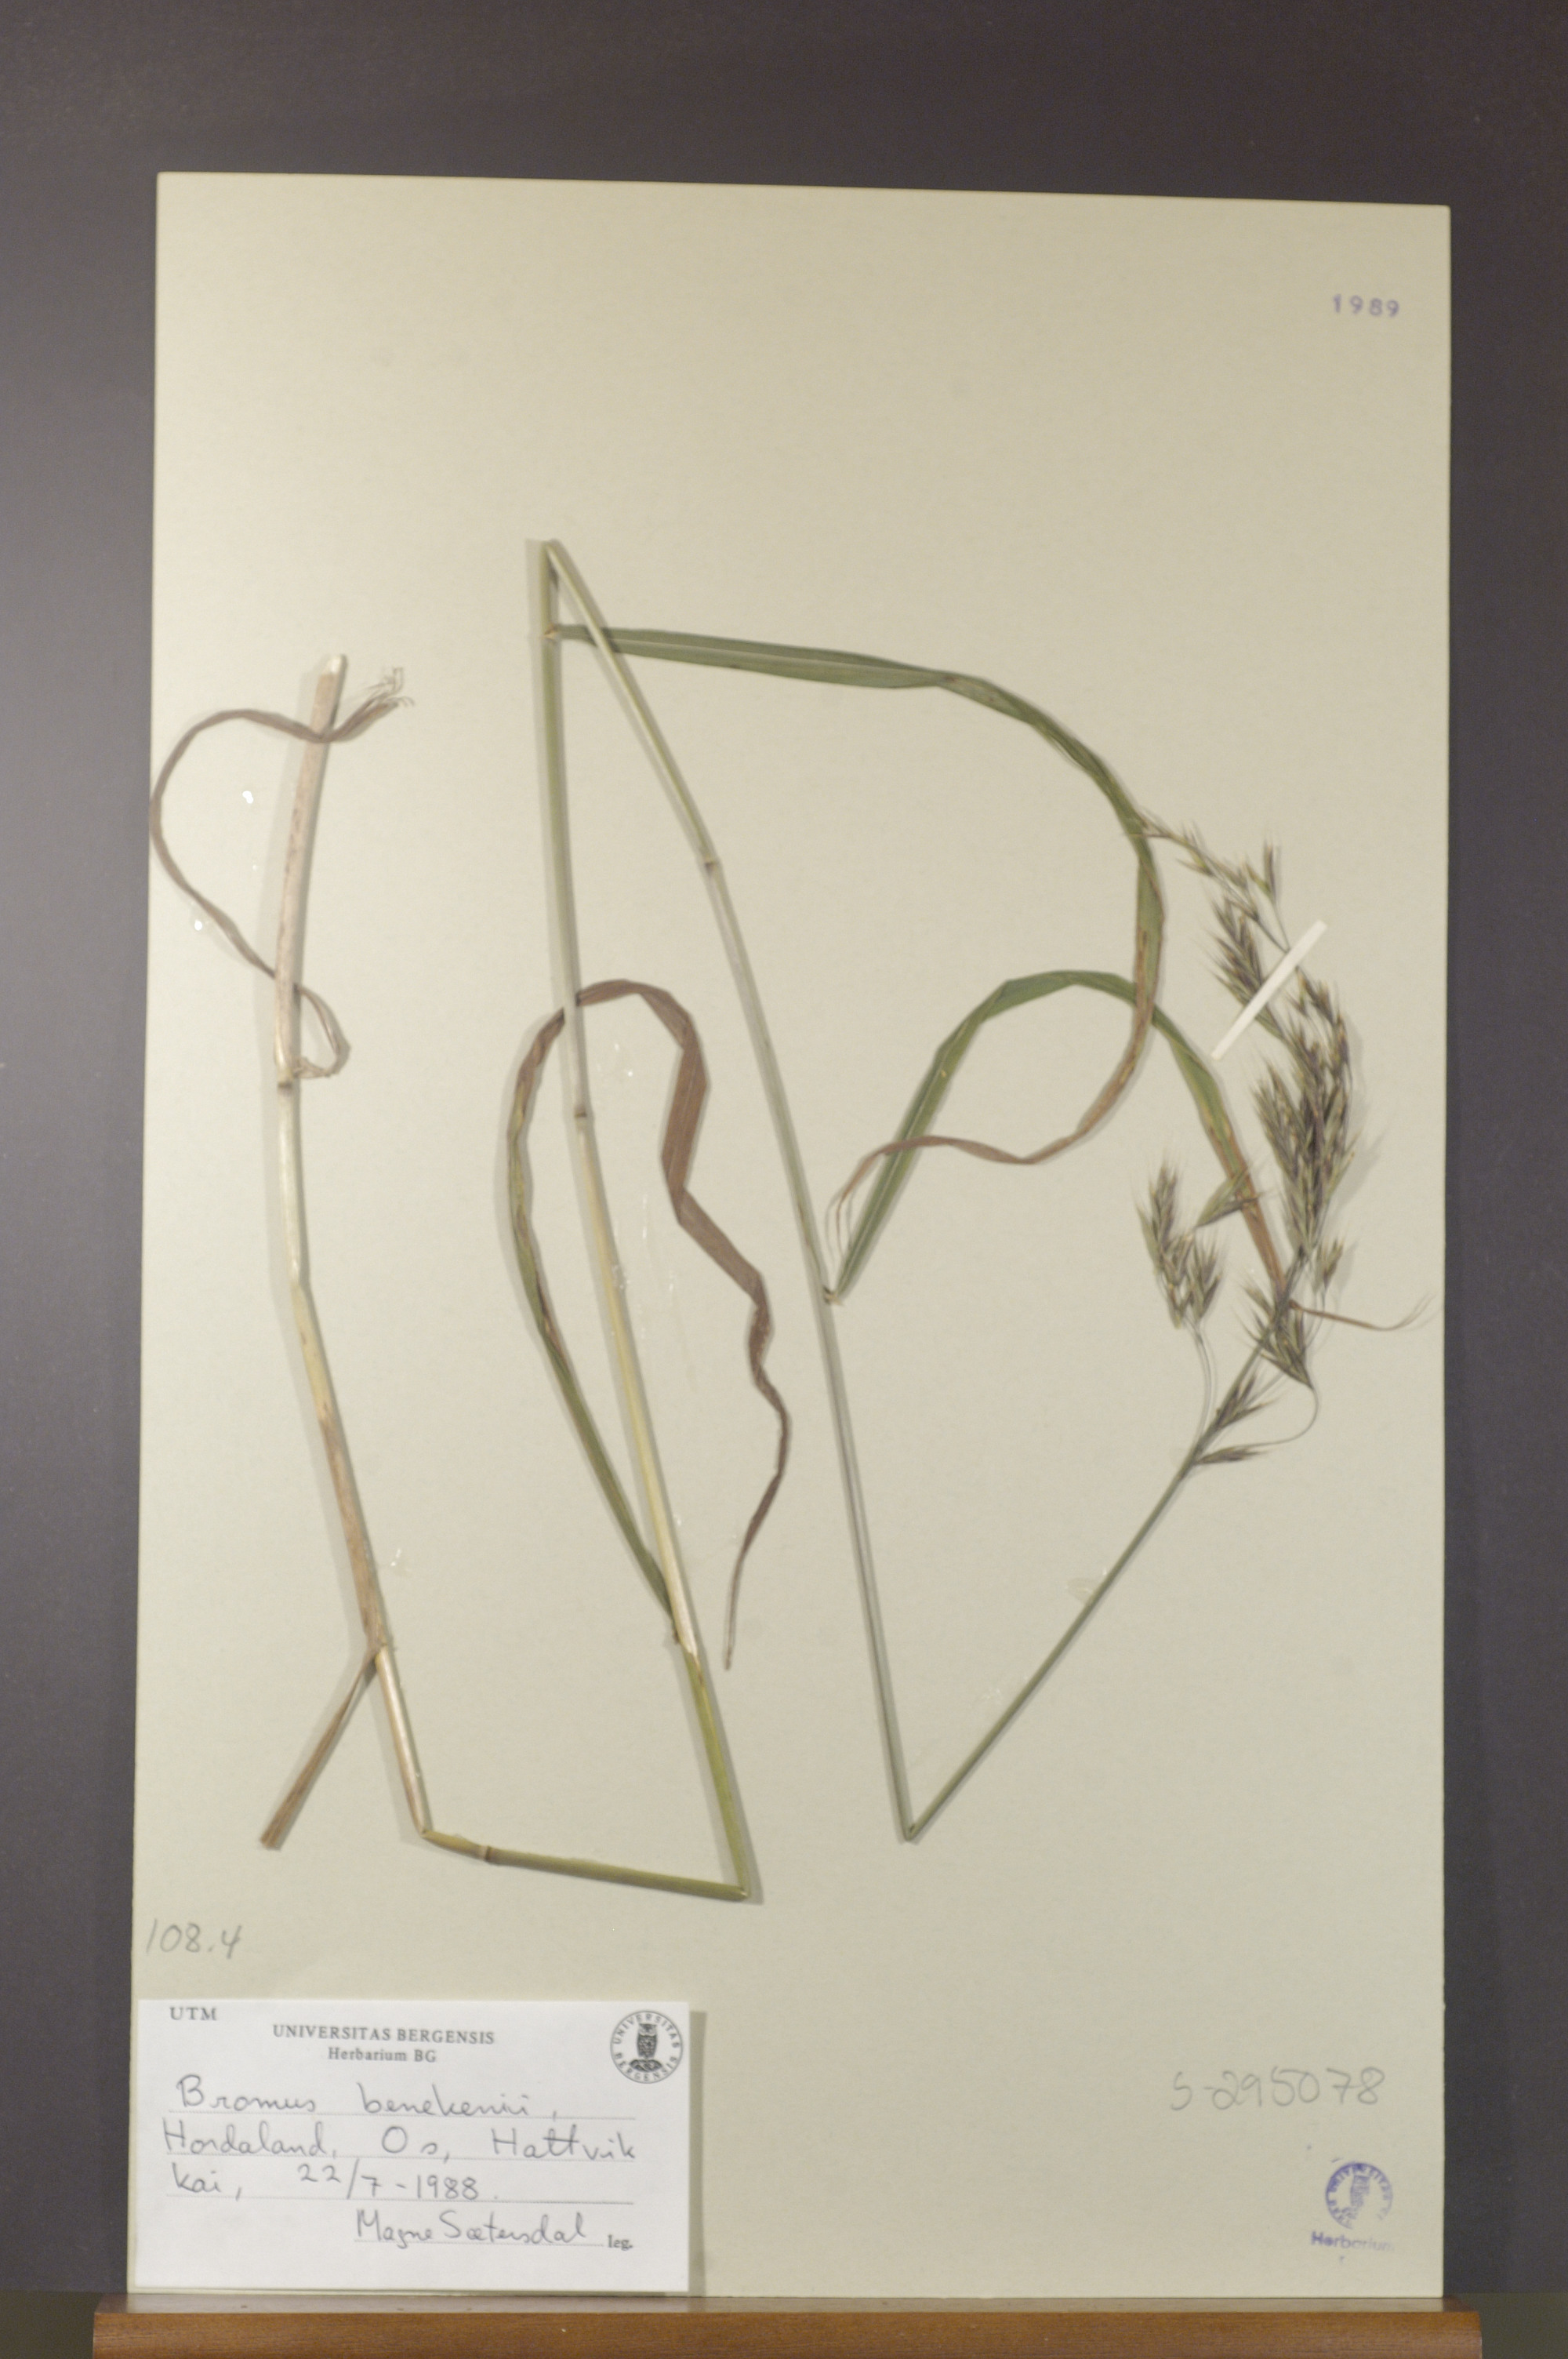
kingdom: Plantae
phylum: Tracheophyta
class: Liliopsida
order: Poales
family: Poaceae
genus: Bromus
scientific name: Bromus benekenii
